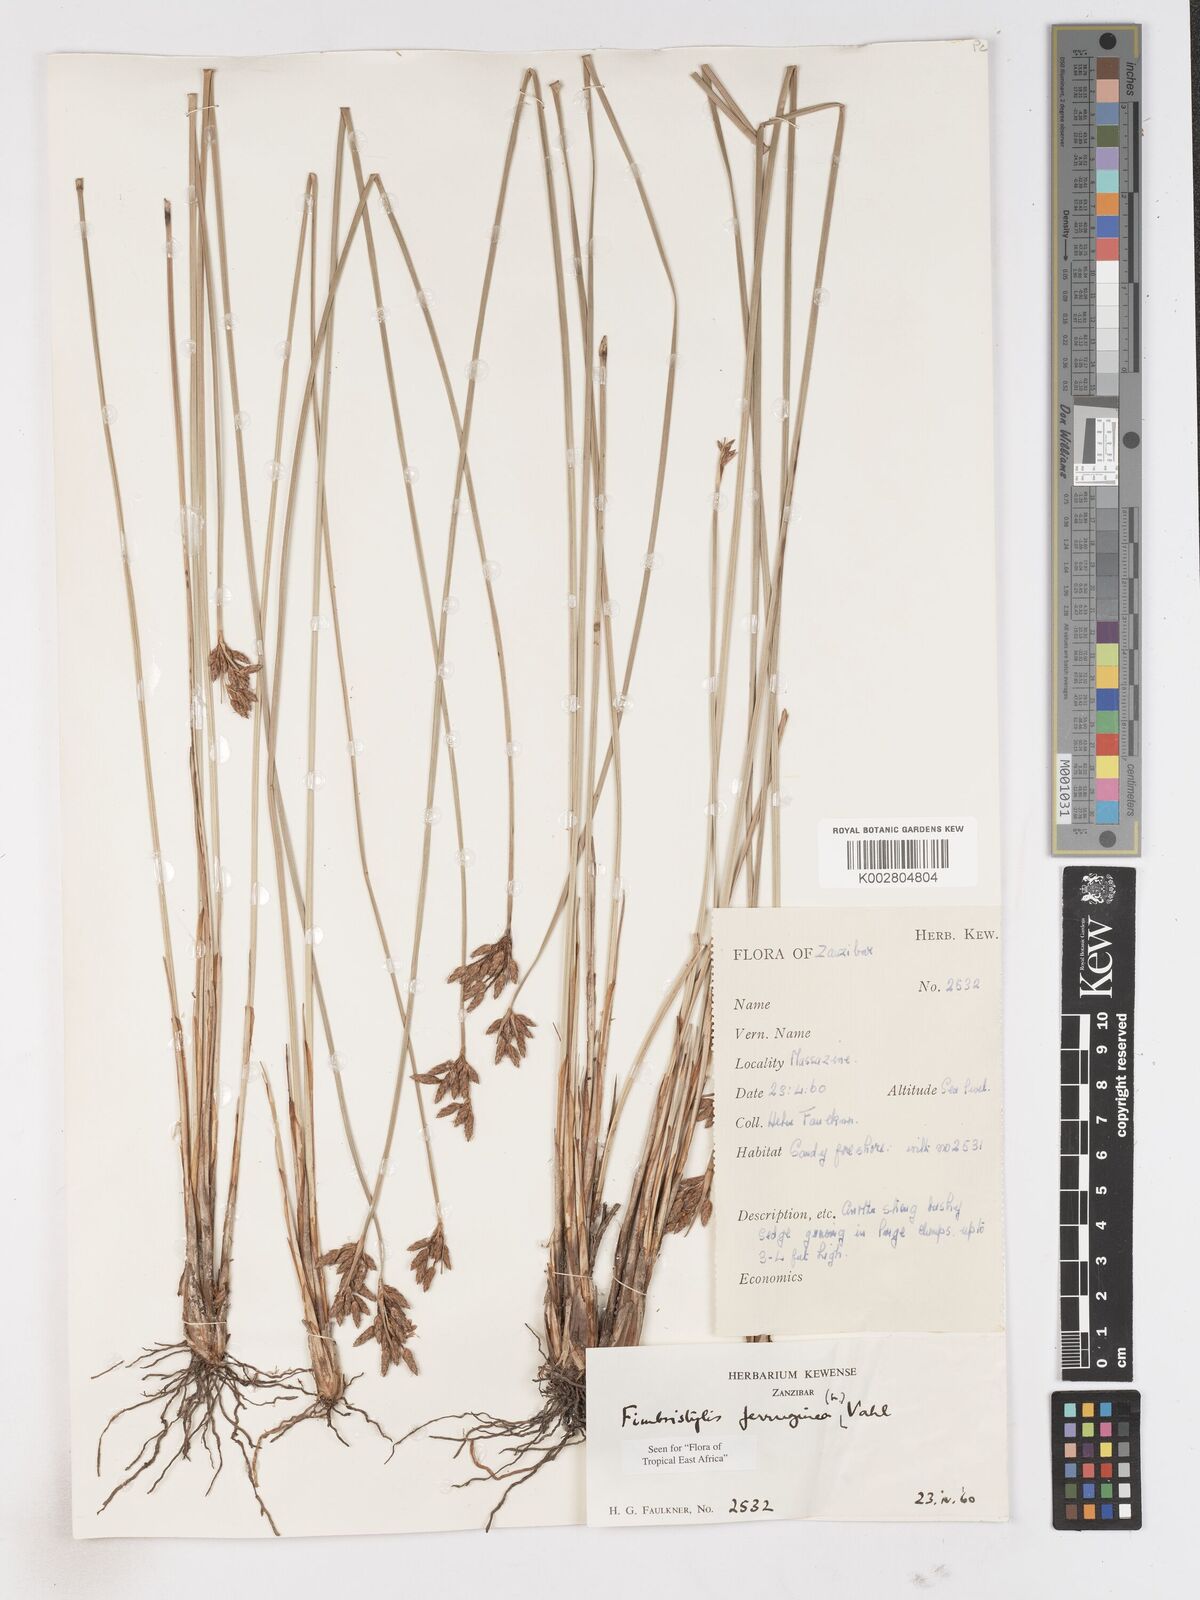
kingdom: Plantae
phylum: Tracheophyta
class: Liliopsida
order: Poales
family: Cyperaceae
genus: Fimbristylis
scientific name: Fimbristylis ferruginea
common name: West indian fimbry
